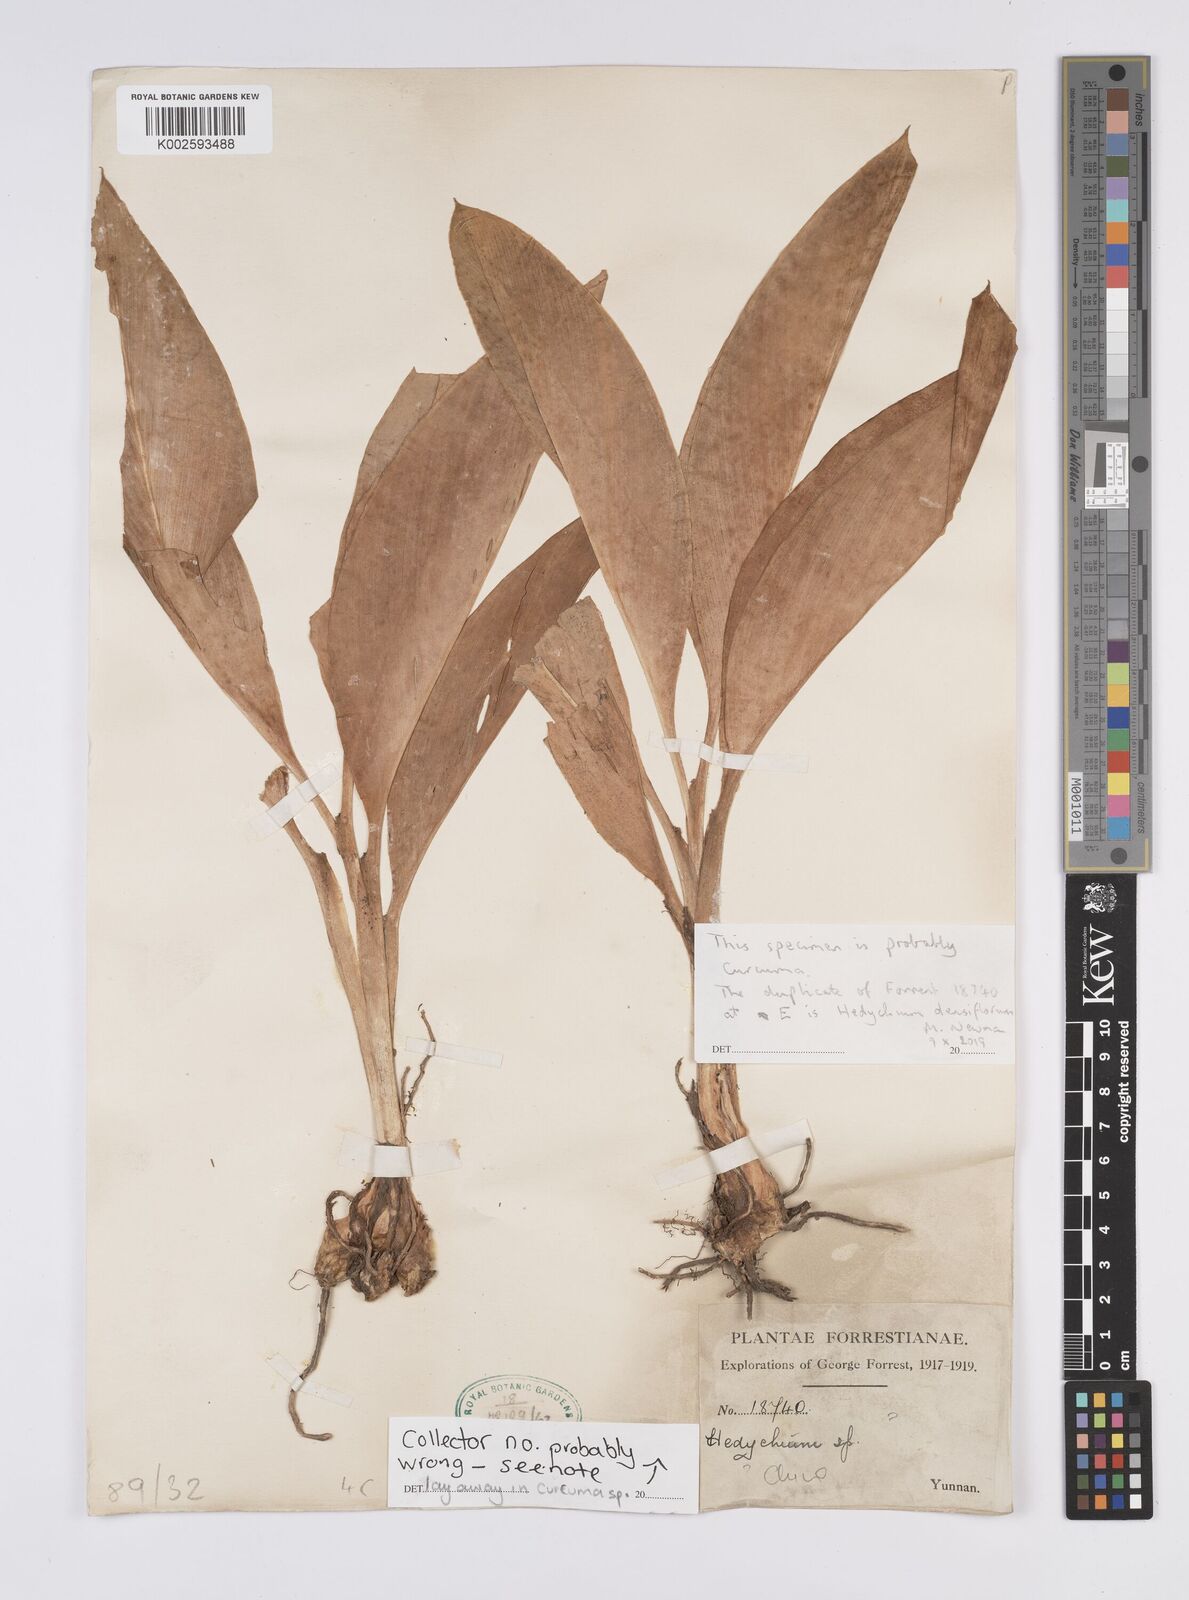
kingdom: Plantae
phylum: Tracheophyta
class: Liliopsida
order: Zingiberales
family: Zingiberaceae
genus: Curcuma
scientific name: Curcuma
